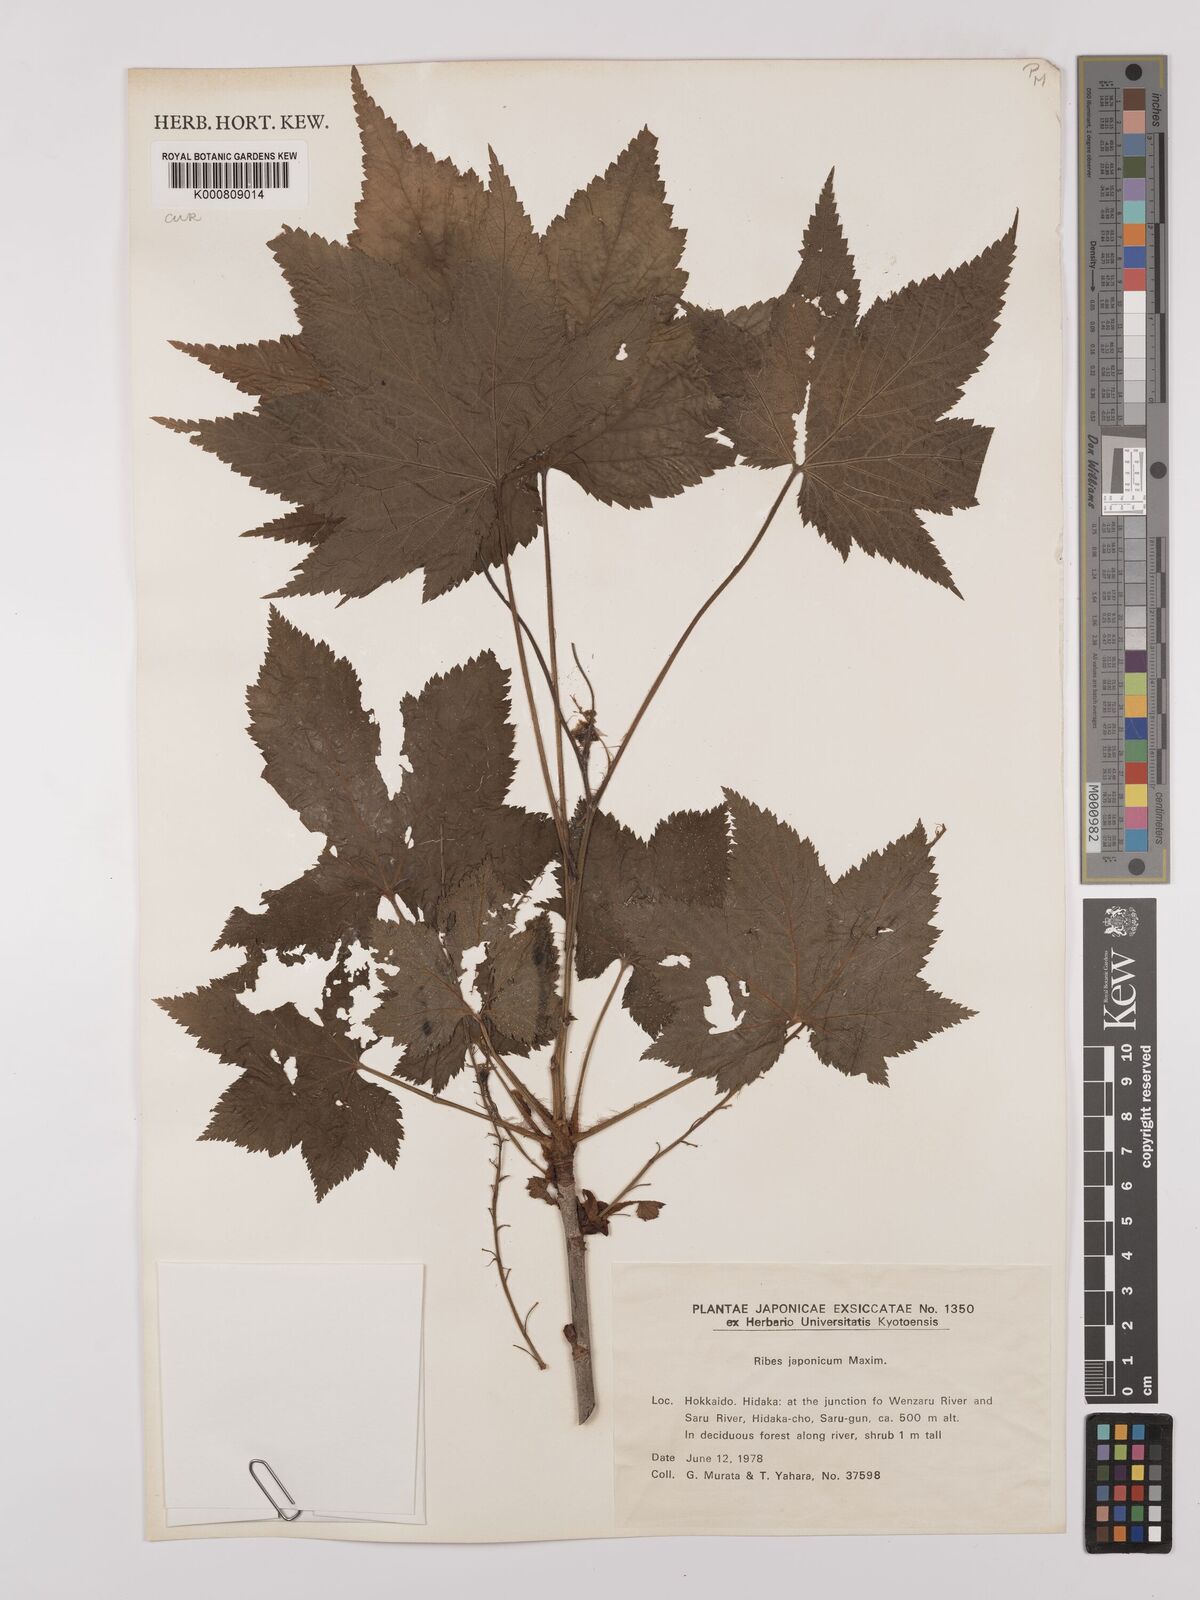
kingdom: Plantae
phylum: Tracheophyta
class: Magnoliopsida
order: Saxifragales
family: Grossulariaceae
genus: Ribes
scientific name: Ribes japonicum
